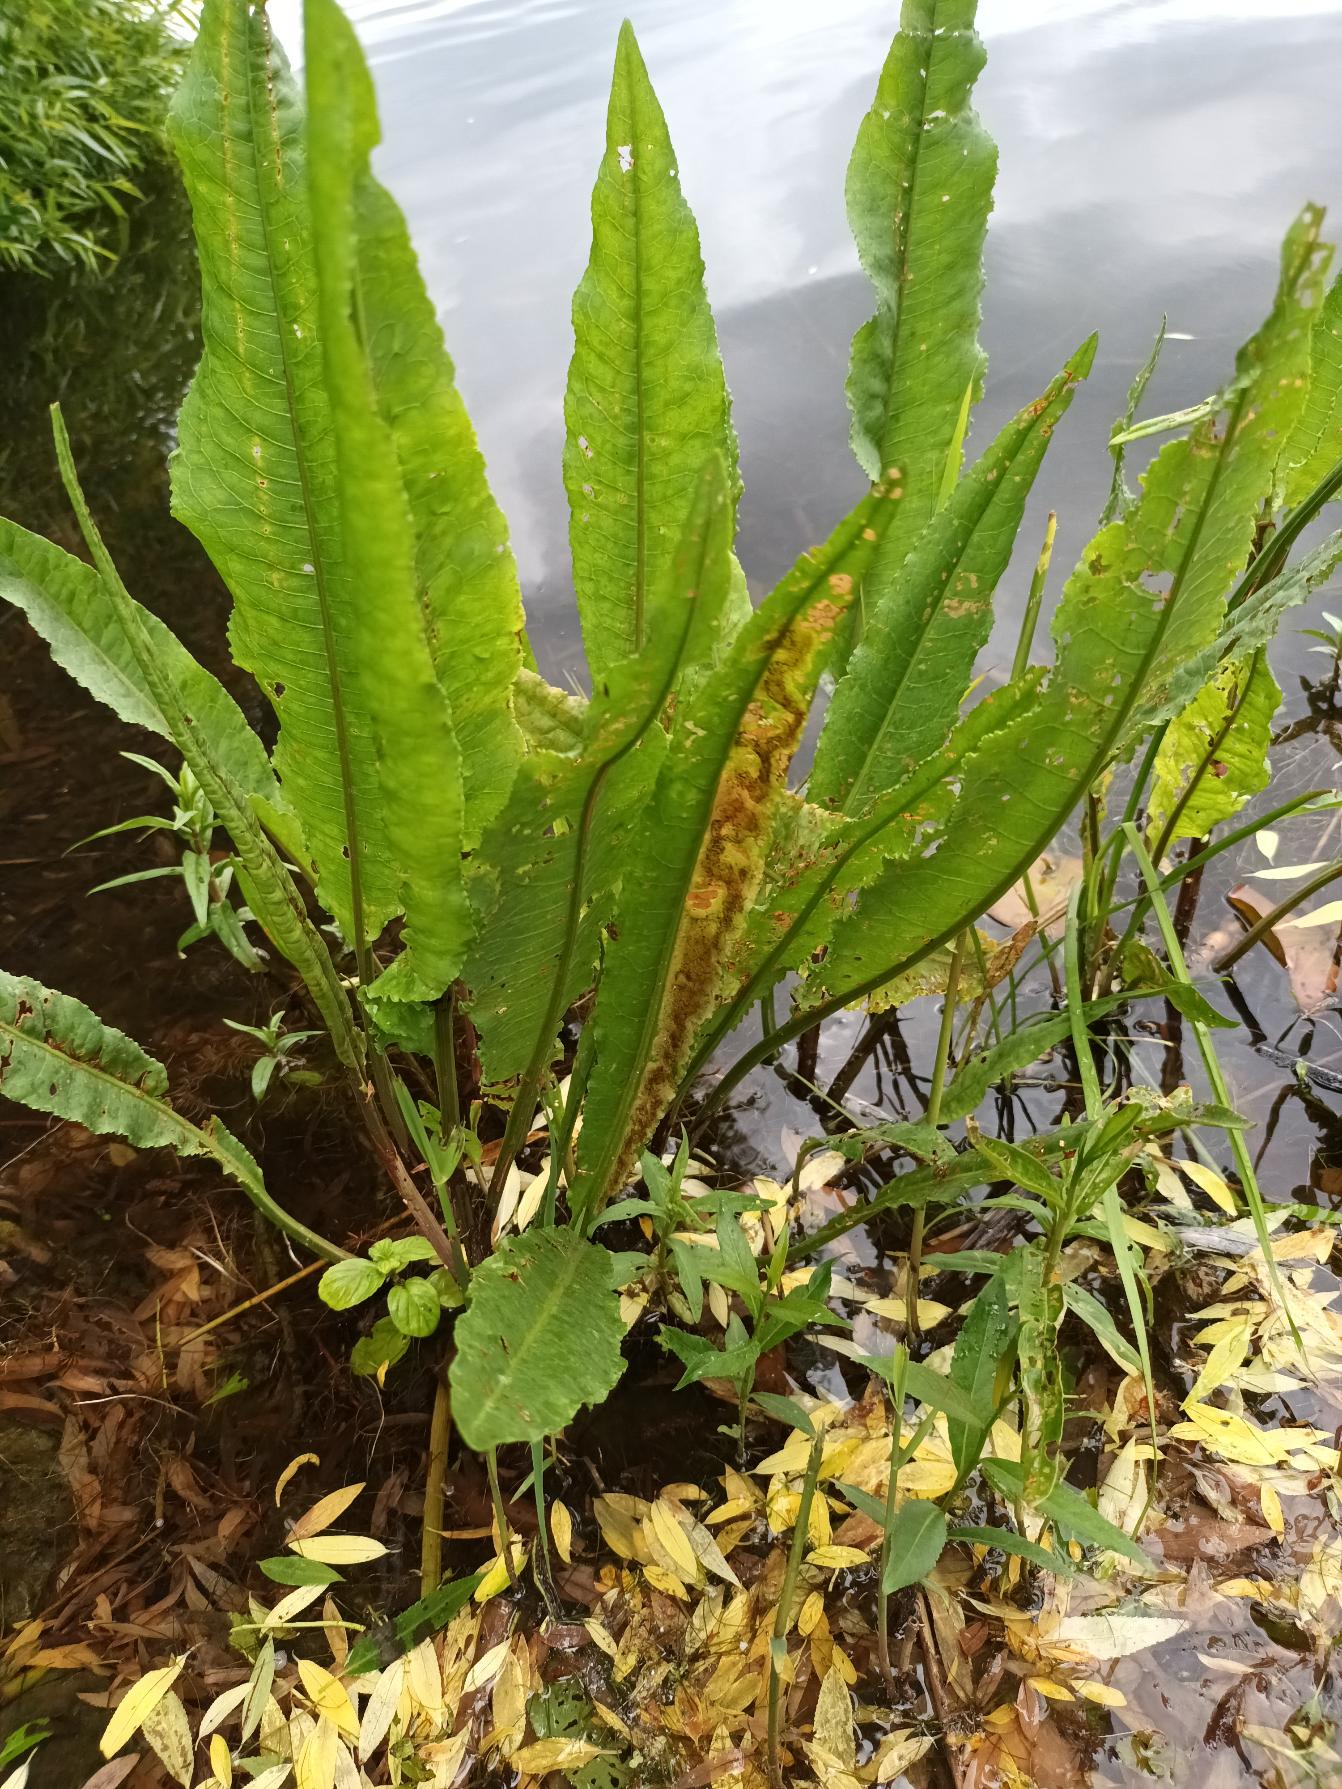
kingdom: Plantae
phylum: Tracheophyta
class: Magnoliopsida
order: Caryophyllales
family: Polygonaceae
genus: Rumex
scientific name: Rumex hydrolapathum
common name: Vand-skræppe
